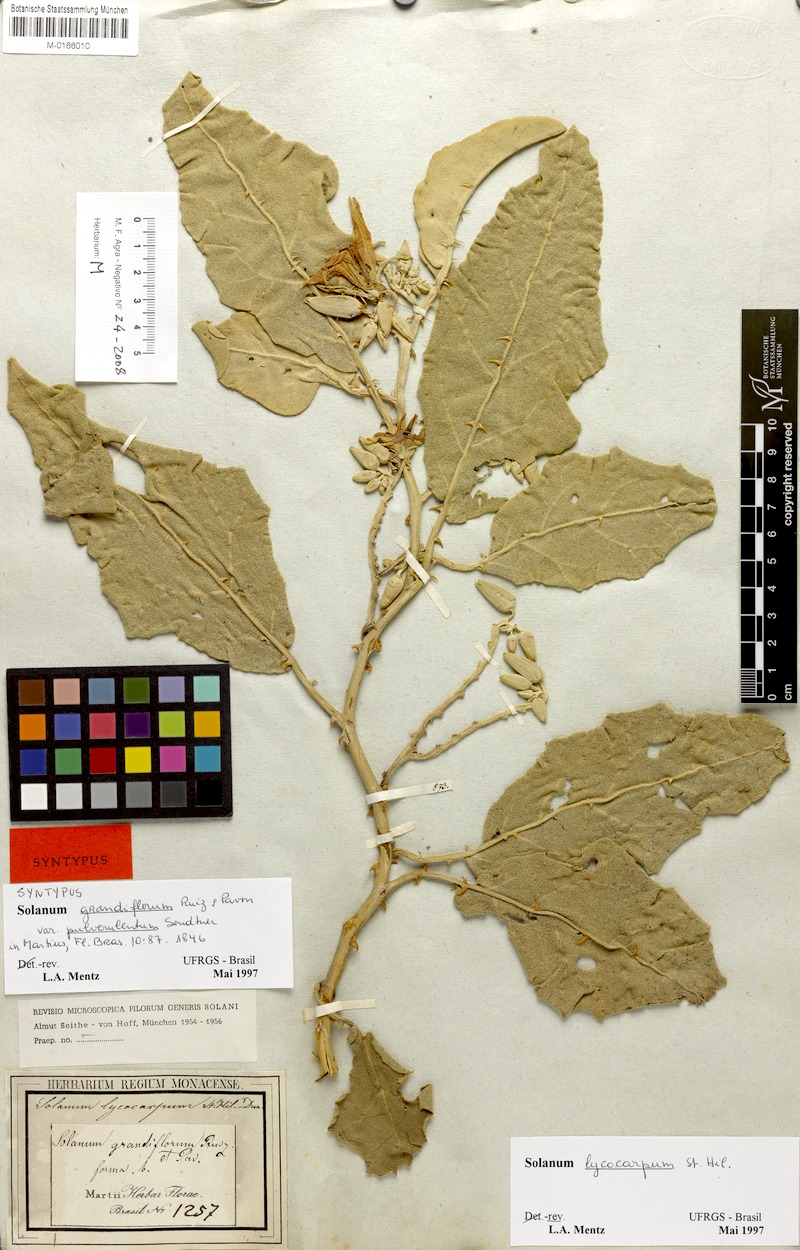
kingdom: Plantae
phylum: Tracheophyta
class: Magnoliopsida
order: Solanales
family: Solanaceae
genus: Solanum
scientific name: Solanum lycocarpum
